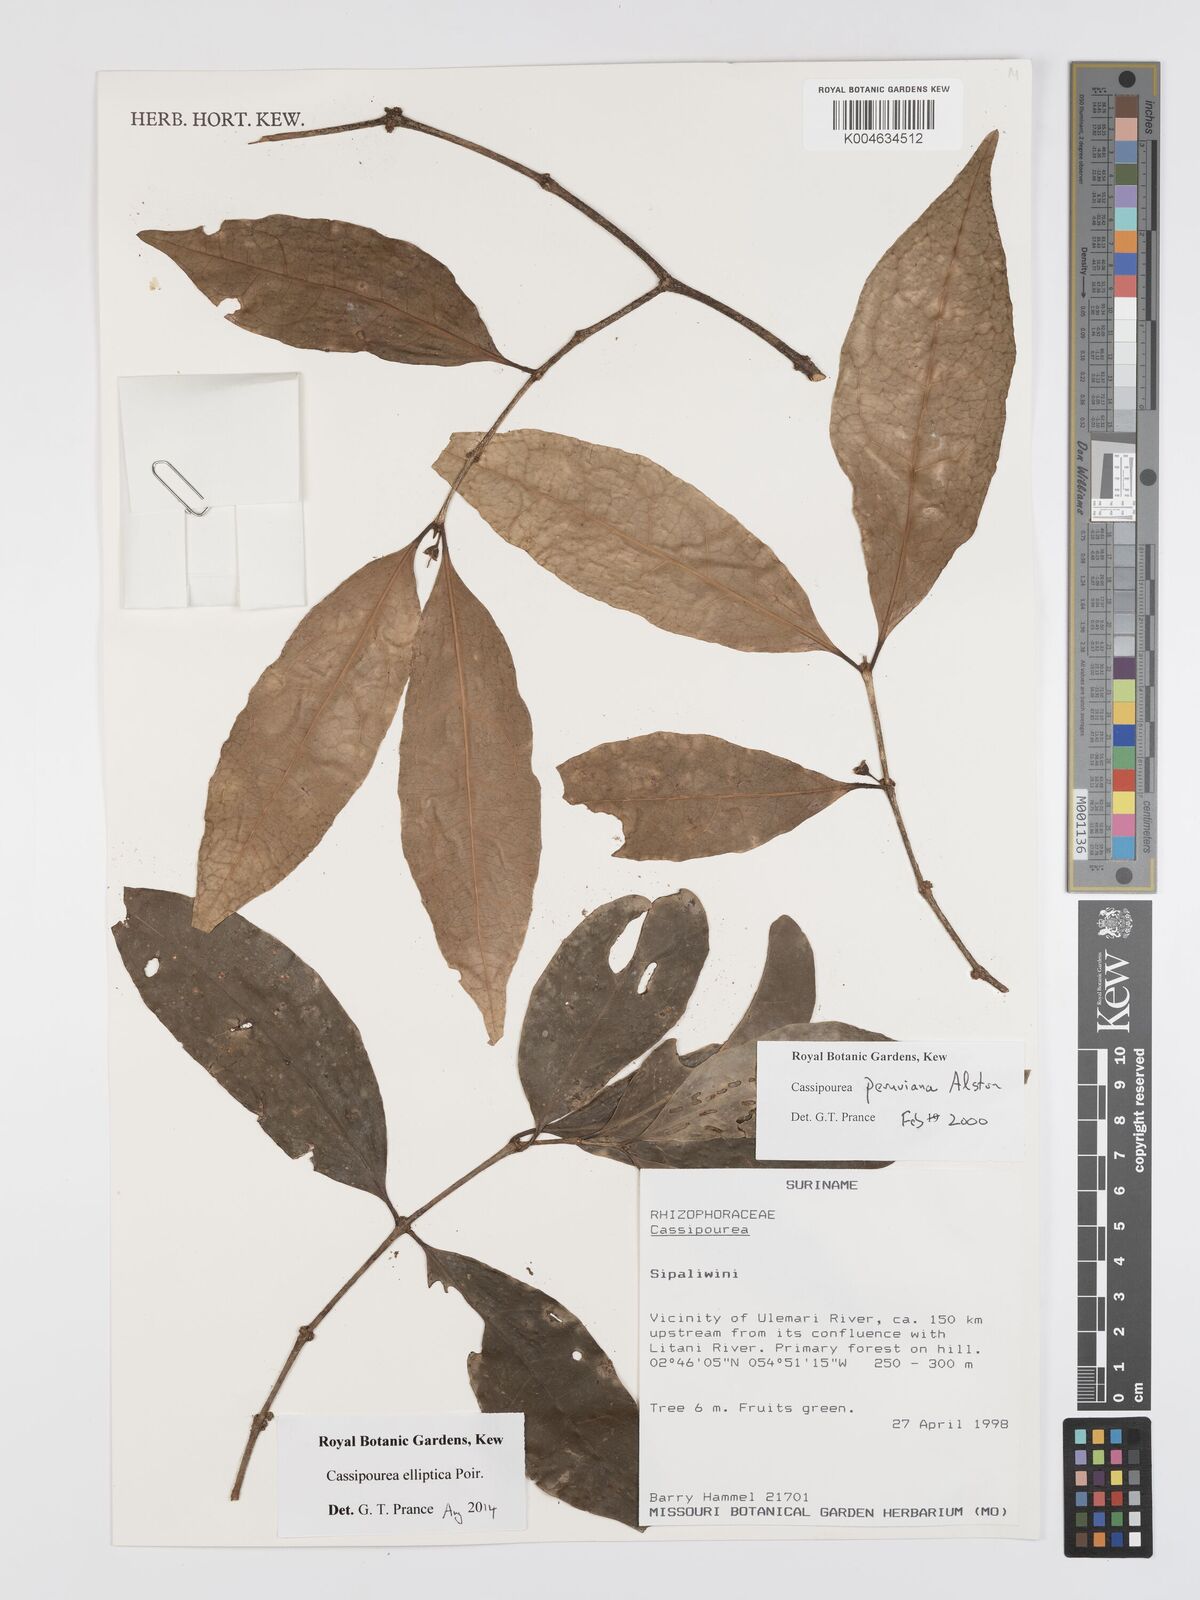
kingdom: Plantae
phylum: Tracheophyta
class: Magnoliopsida
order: Malpighiales
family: Rhizophoraceae
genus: Cassipourea
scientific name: Cassipourea peruviana
